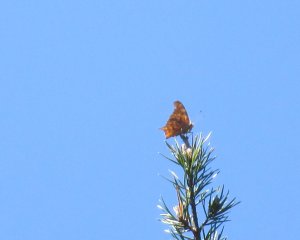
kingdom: Animalia
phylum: Arthropoda
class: Insecta
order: Lepidoptera
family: Nymphalidae
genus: Polygonia
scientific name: Polygonia interrogationis
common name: Question Mark
